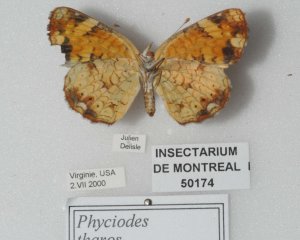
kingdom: Animalia
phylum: Arthropoda
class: Insecta
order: Lepidoptera
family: Nymphalidae
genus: Phyciodes
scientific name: Phyciodes tharos
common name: Pearl Crescent
